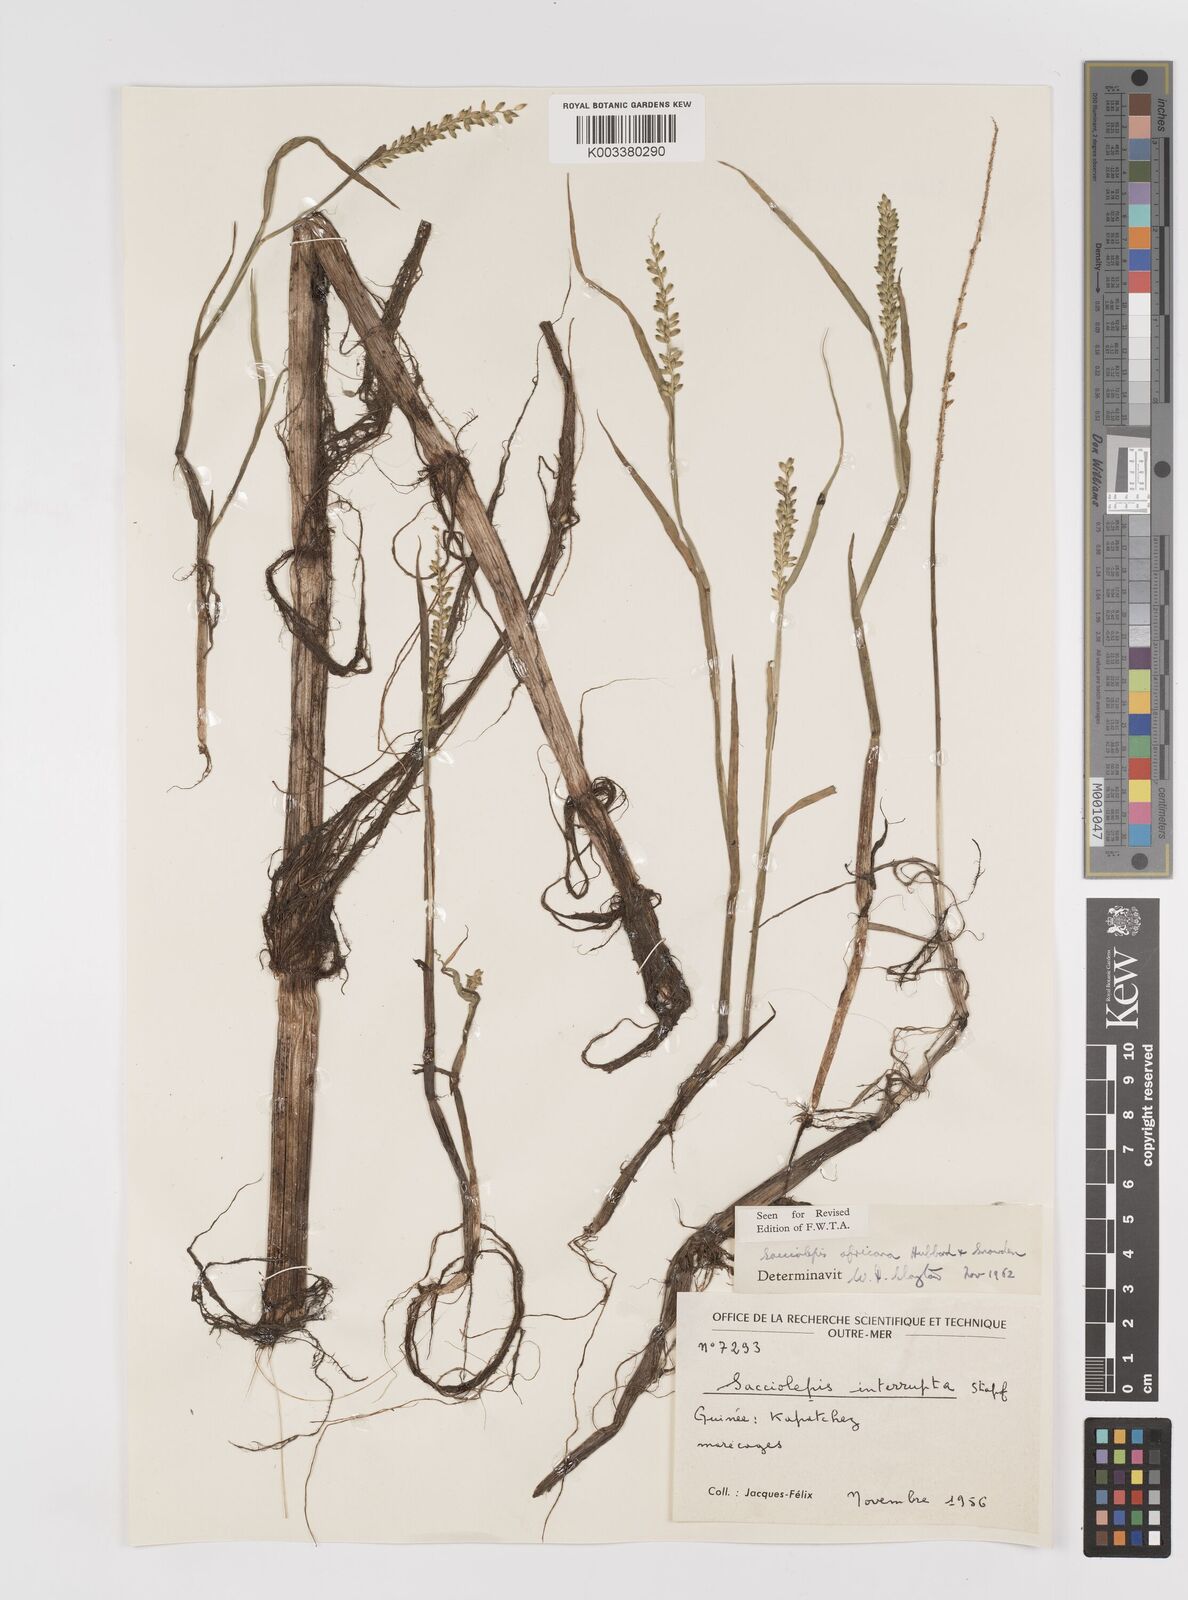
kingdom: Plantae
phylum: Tracheophyta
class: Liliopsida
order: Poales
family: Poaceae
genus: Sacciolepis
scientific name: Sacciolepis africana
